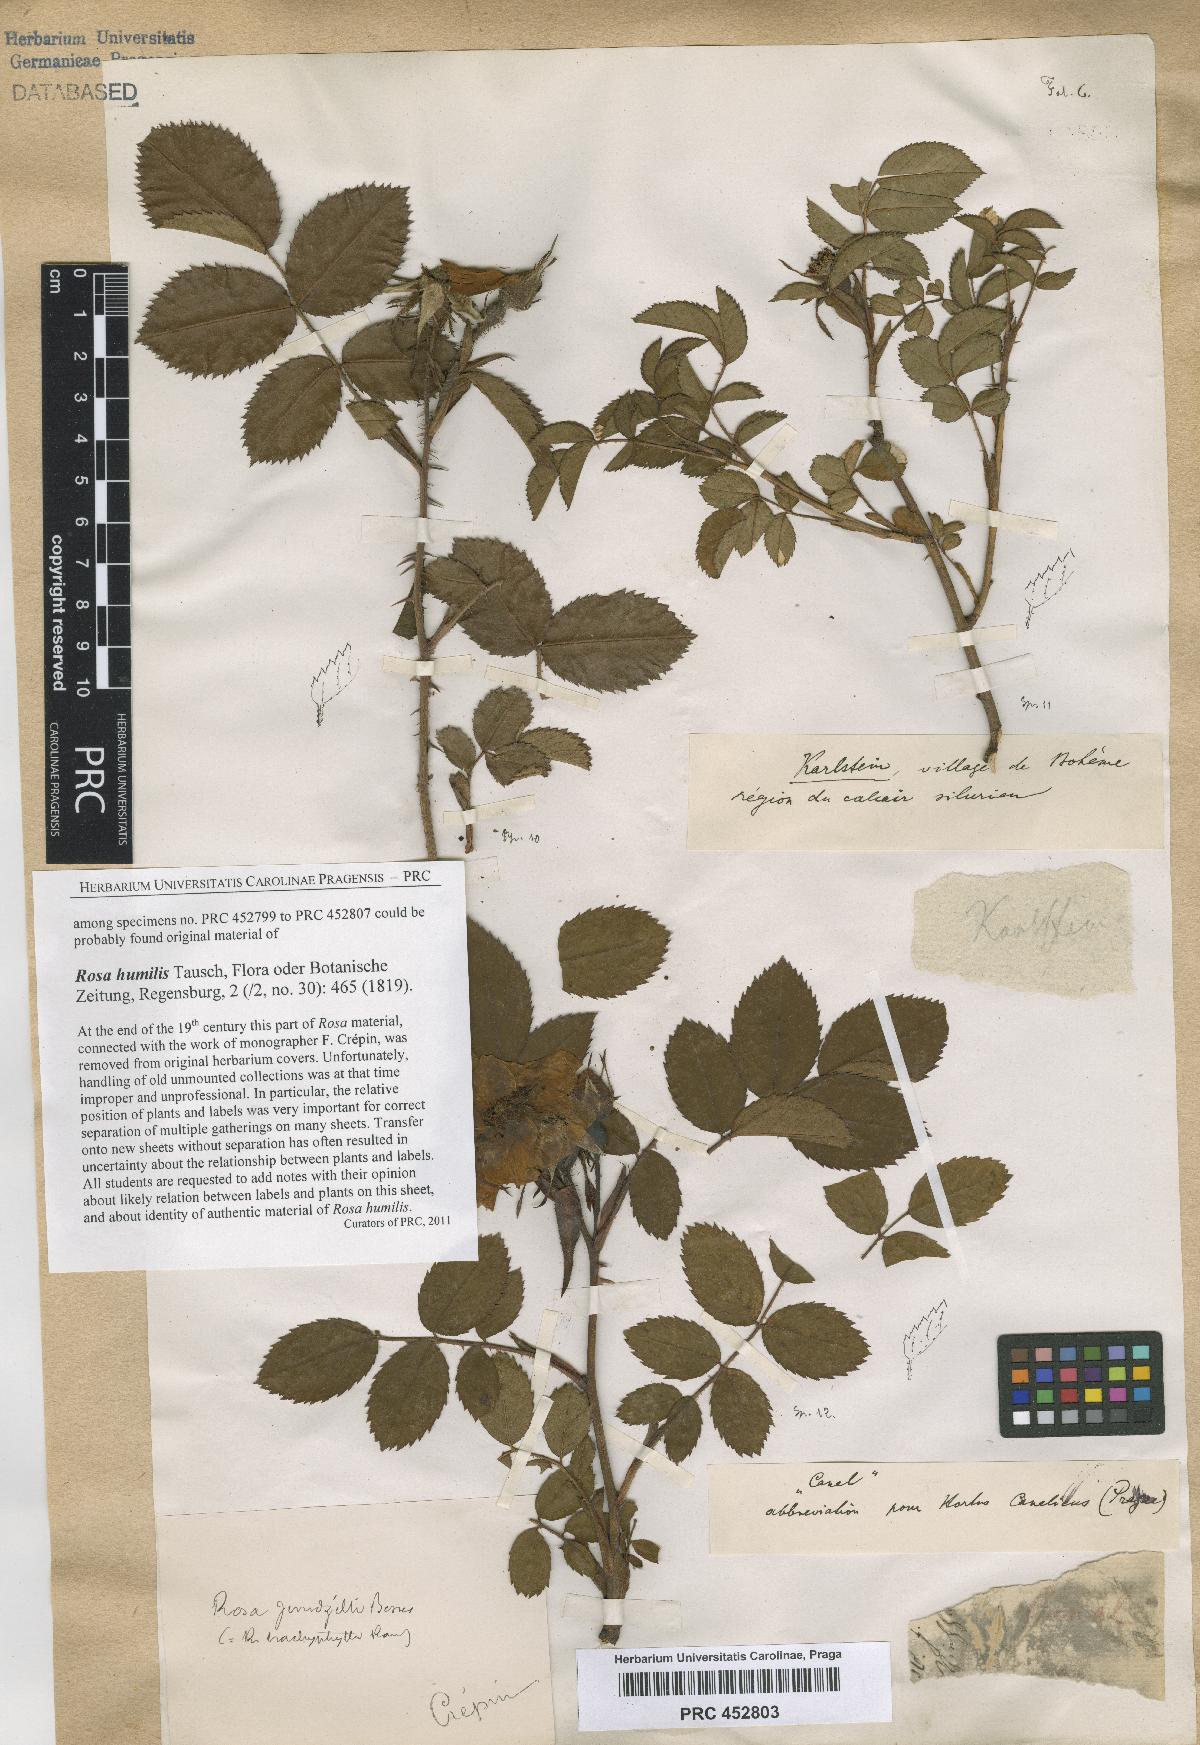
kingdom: Plantae
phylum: Tracheophyta
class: Magnoliopsida
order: Rosales
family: Rosaceae
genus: Rosa
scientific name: Rosa marginata
